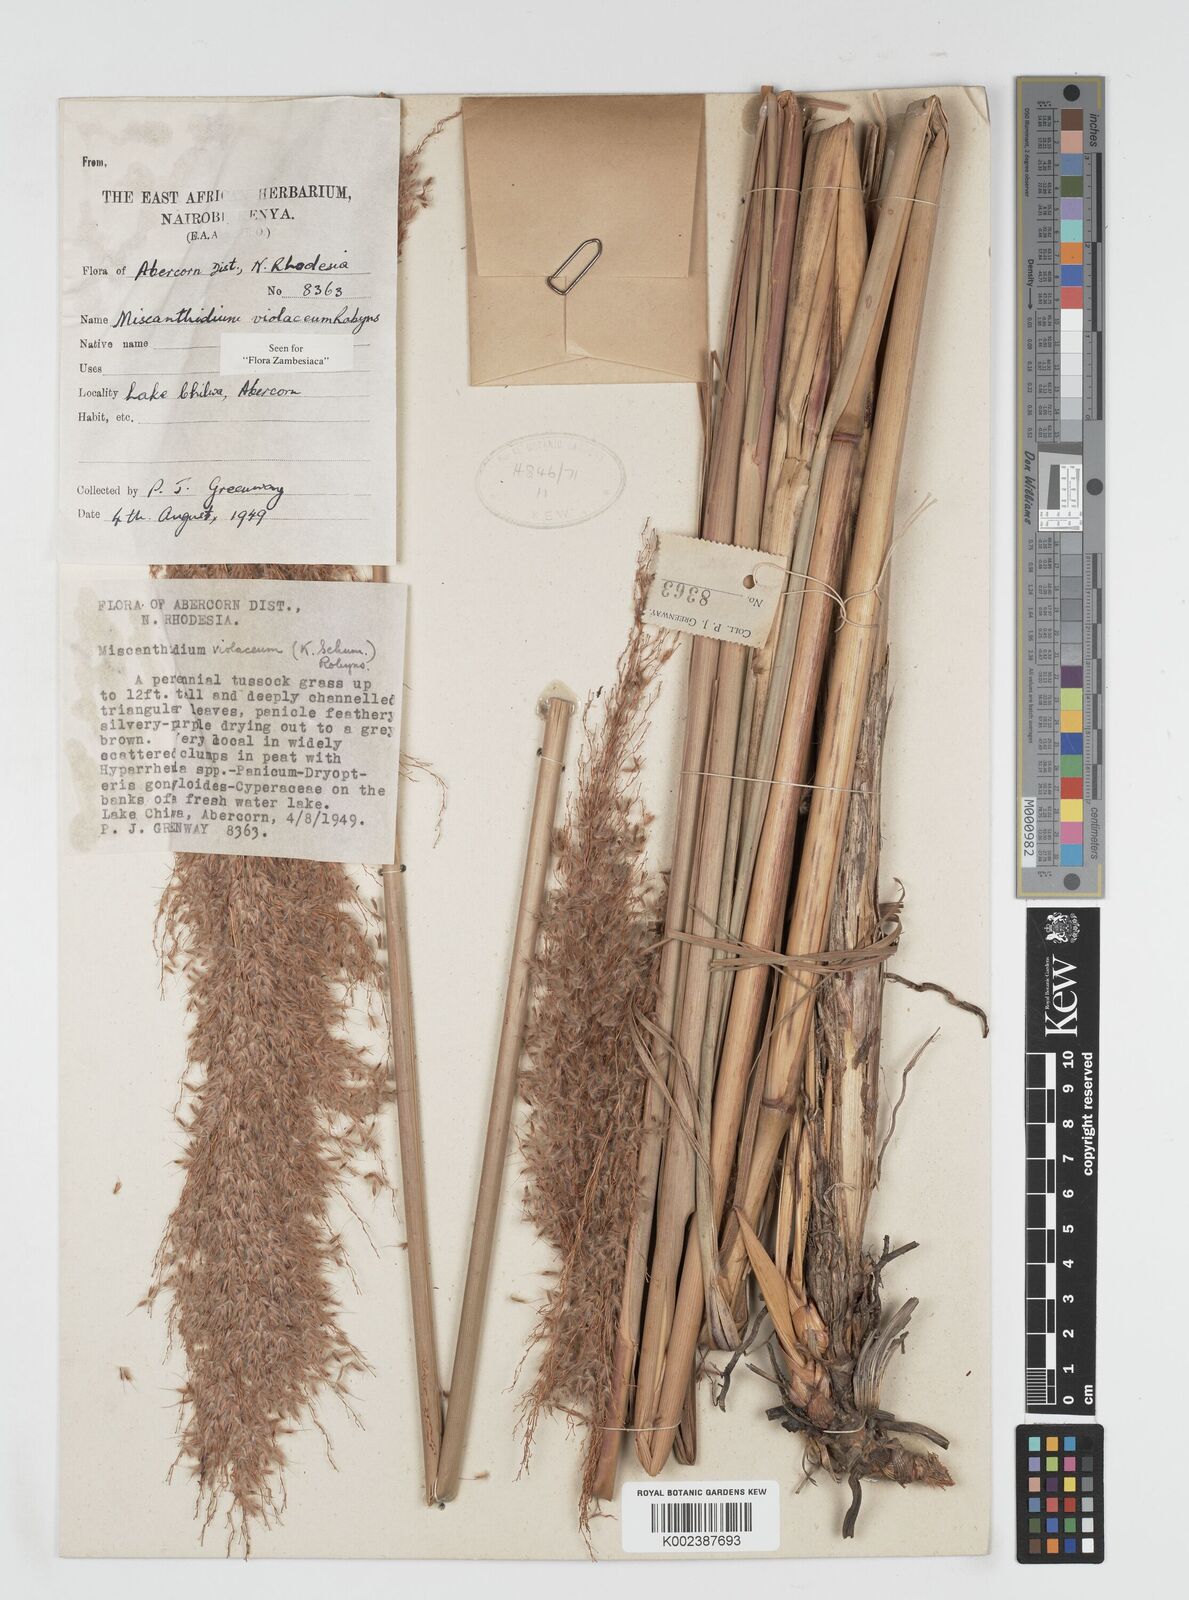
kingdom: Plantae
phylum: Tracheophyta
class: Liliopsida
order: Poales
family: Poaceae
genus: Miscanthidium
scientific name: Miscanthidium violaceum
